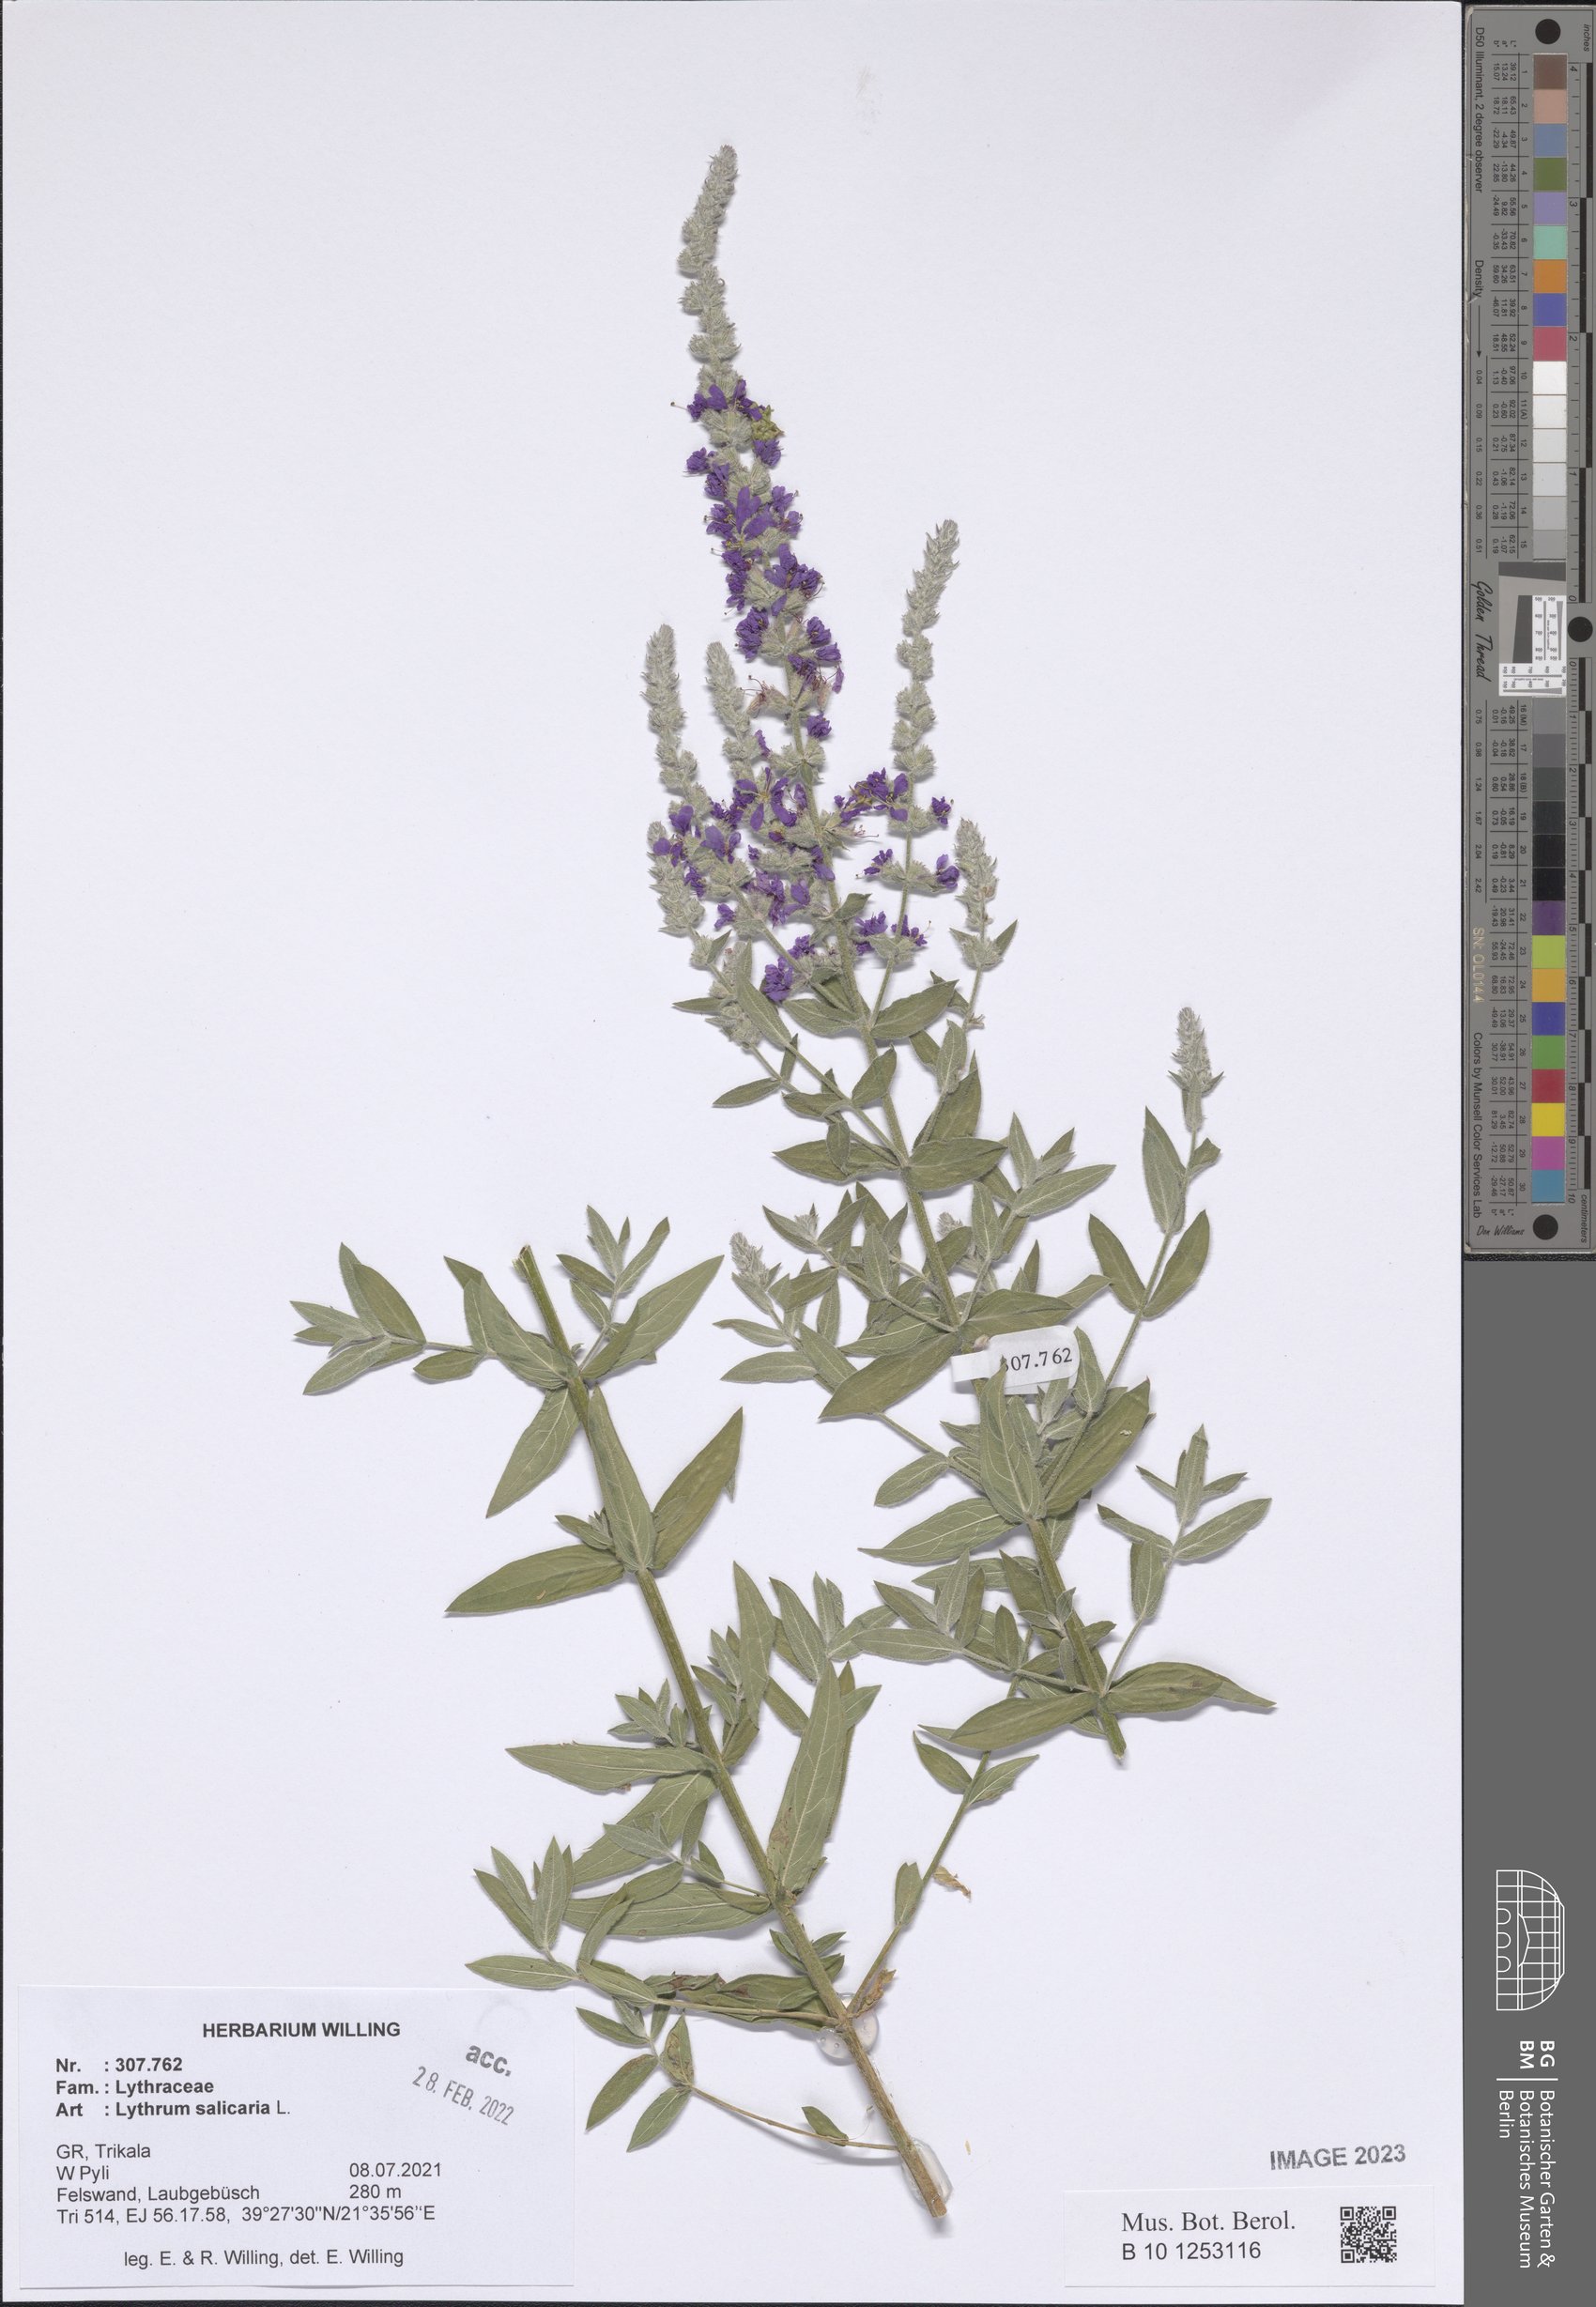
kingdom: Plantae
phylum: Tracheophyta
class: Magnoliopsida
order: Myrtales
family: Lythraceae
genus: Lythrum
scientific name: Lythrum salicaria
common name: Purple loosestrife
